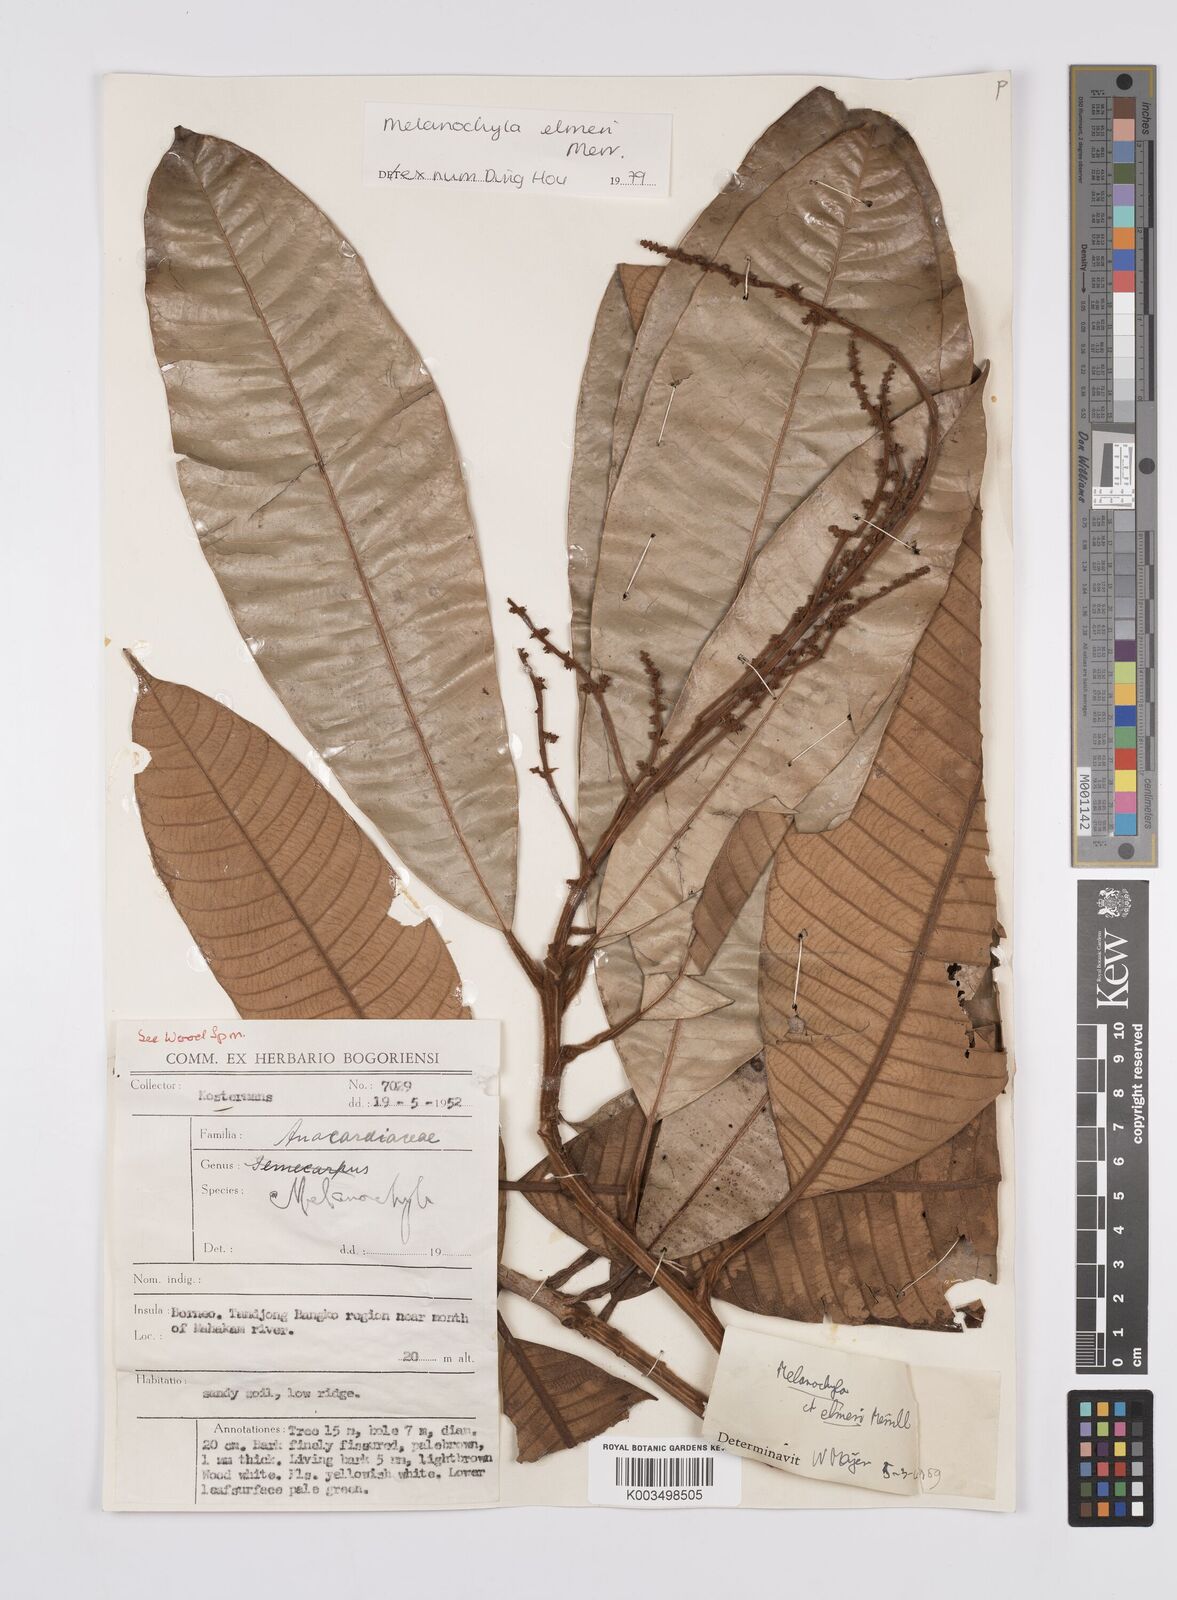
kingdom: Plantae
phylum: Tracheophyta
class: Magnoliopsida
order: Sapindales
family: Anacardiaceae
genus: Melanochyla
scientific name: Melanochyla elmeri
